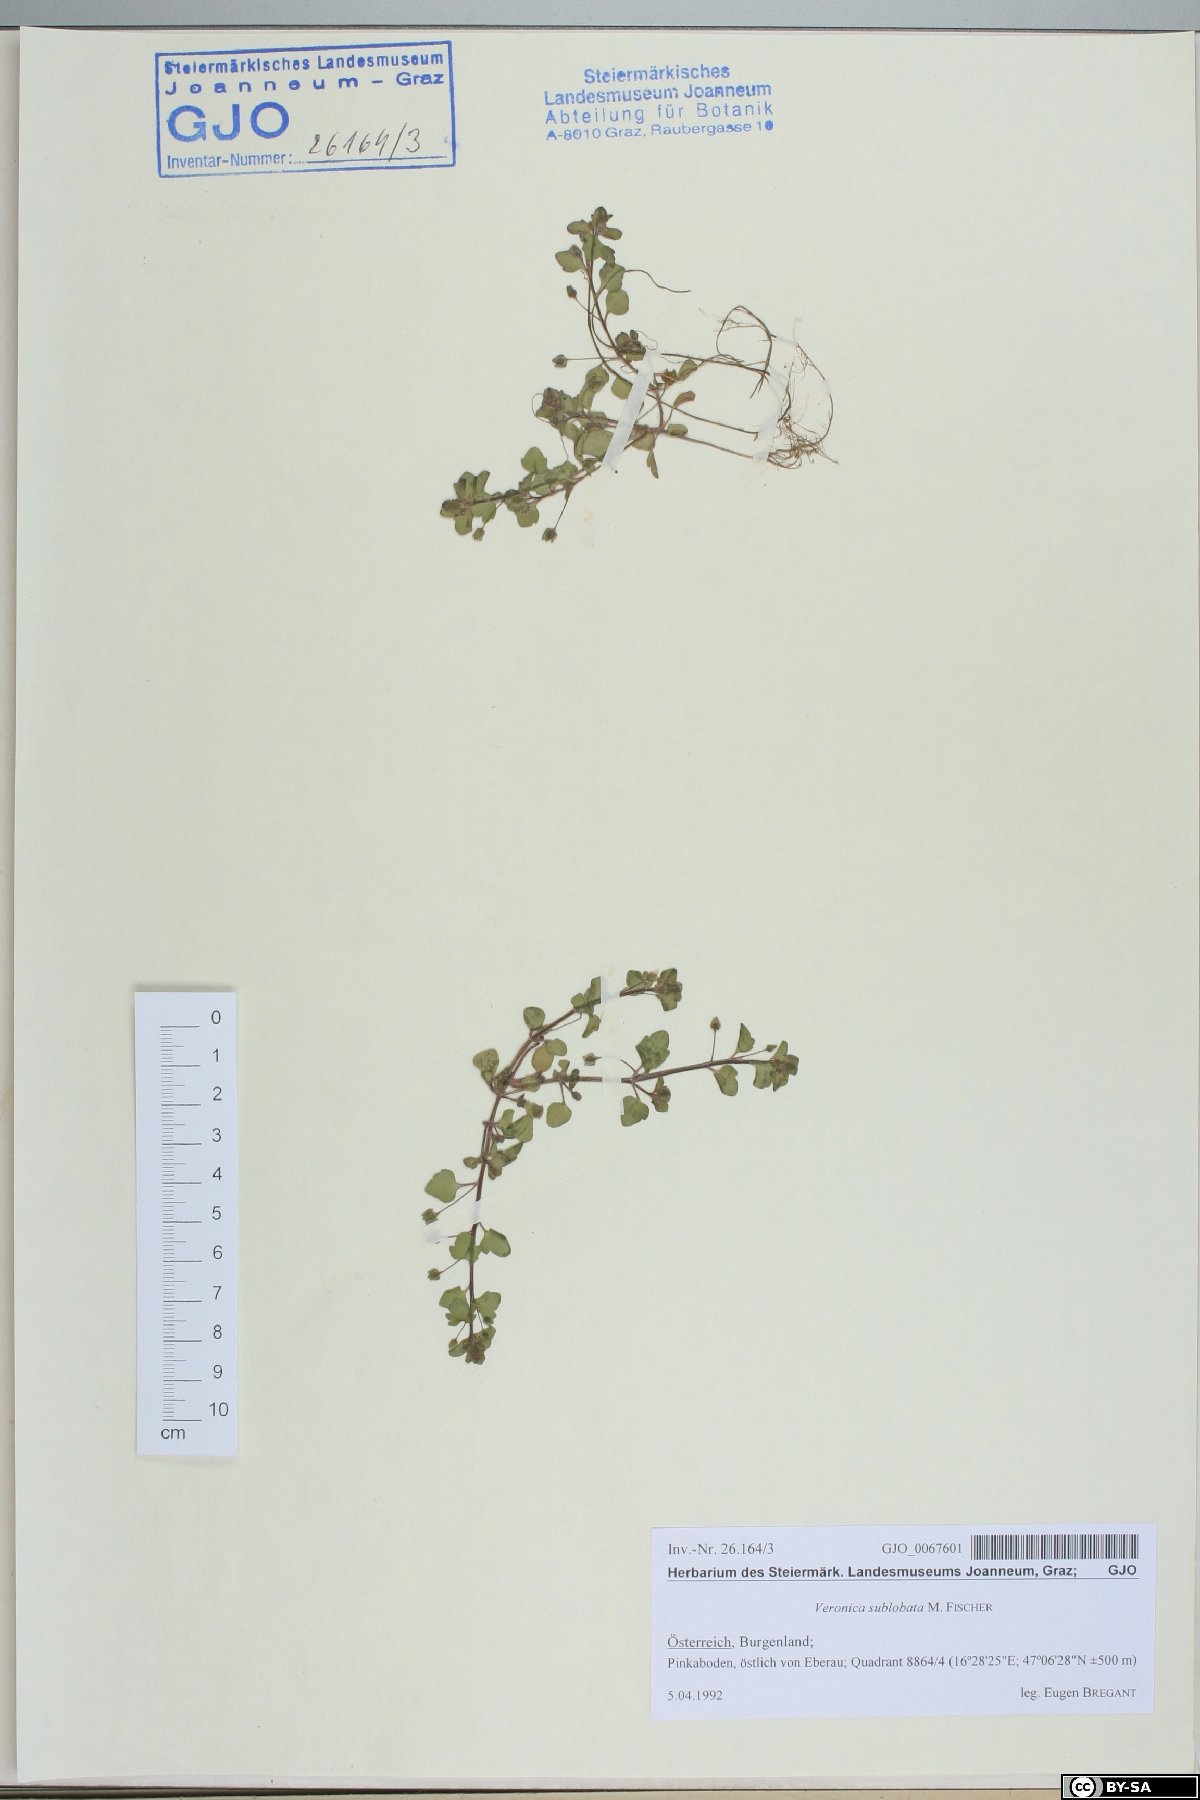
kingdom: Plantae
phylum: Tracheophyta
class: Magnoliopsida
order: Lamiales
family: Plantaginaceae
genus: Veronica
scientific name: Veronica sublobata
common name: False ivy-leaved speedwell
